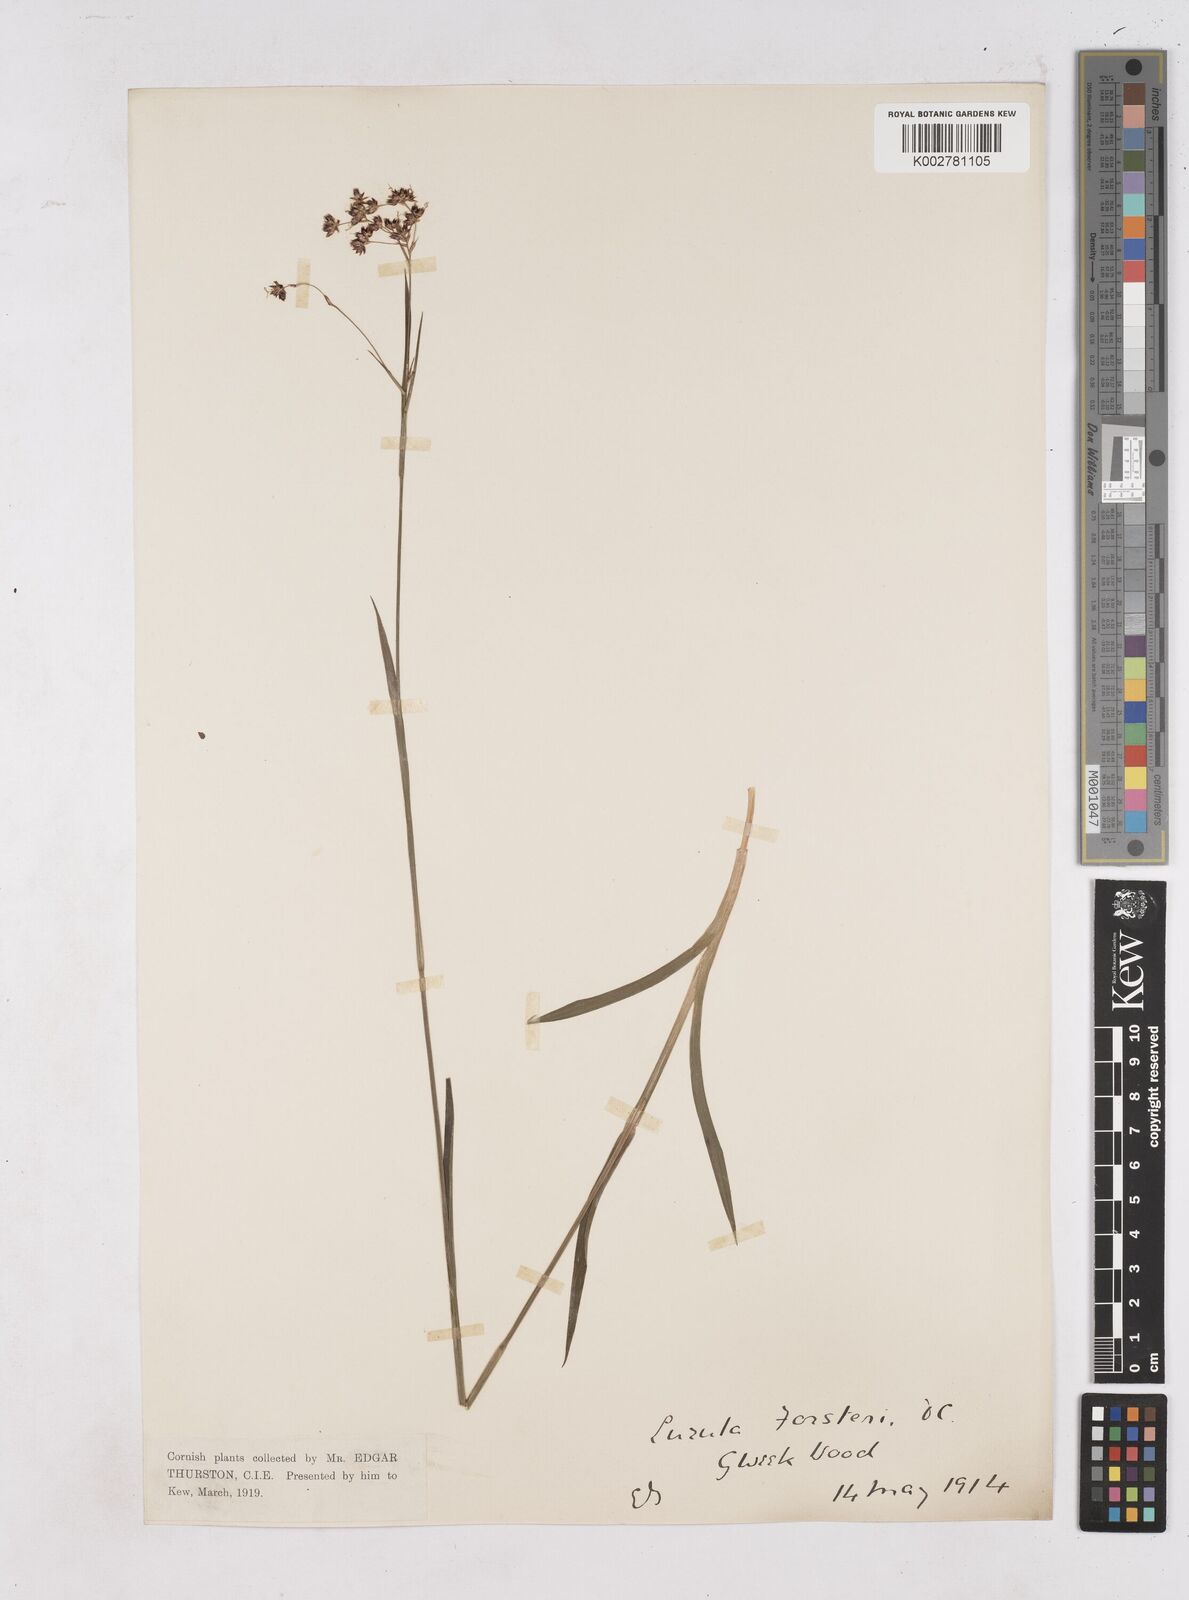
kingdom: Plantae
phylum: Tracheophyta
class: Liliopsida
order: Poales
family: Juncaceae
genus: Luzula
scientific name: Luzula forsteri
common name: Southern wood-rush
